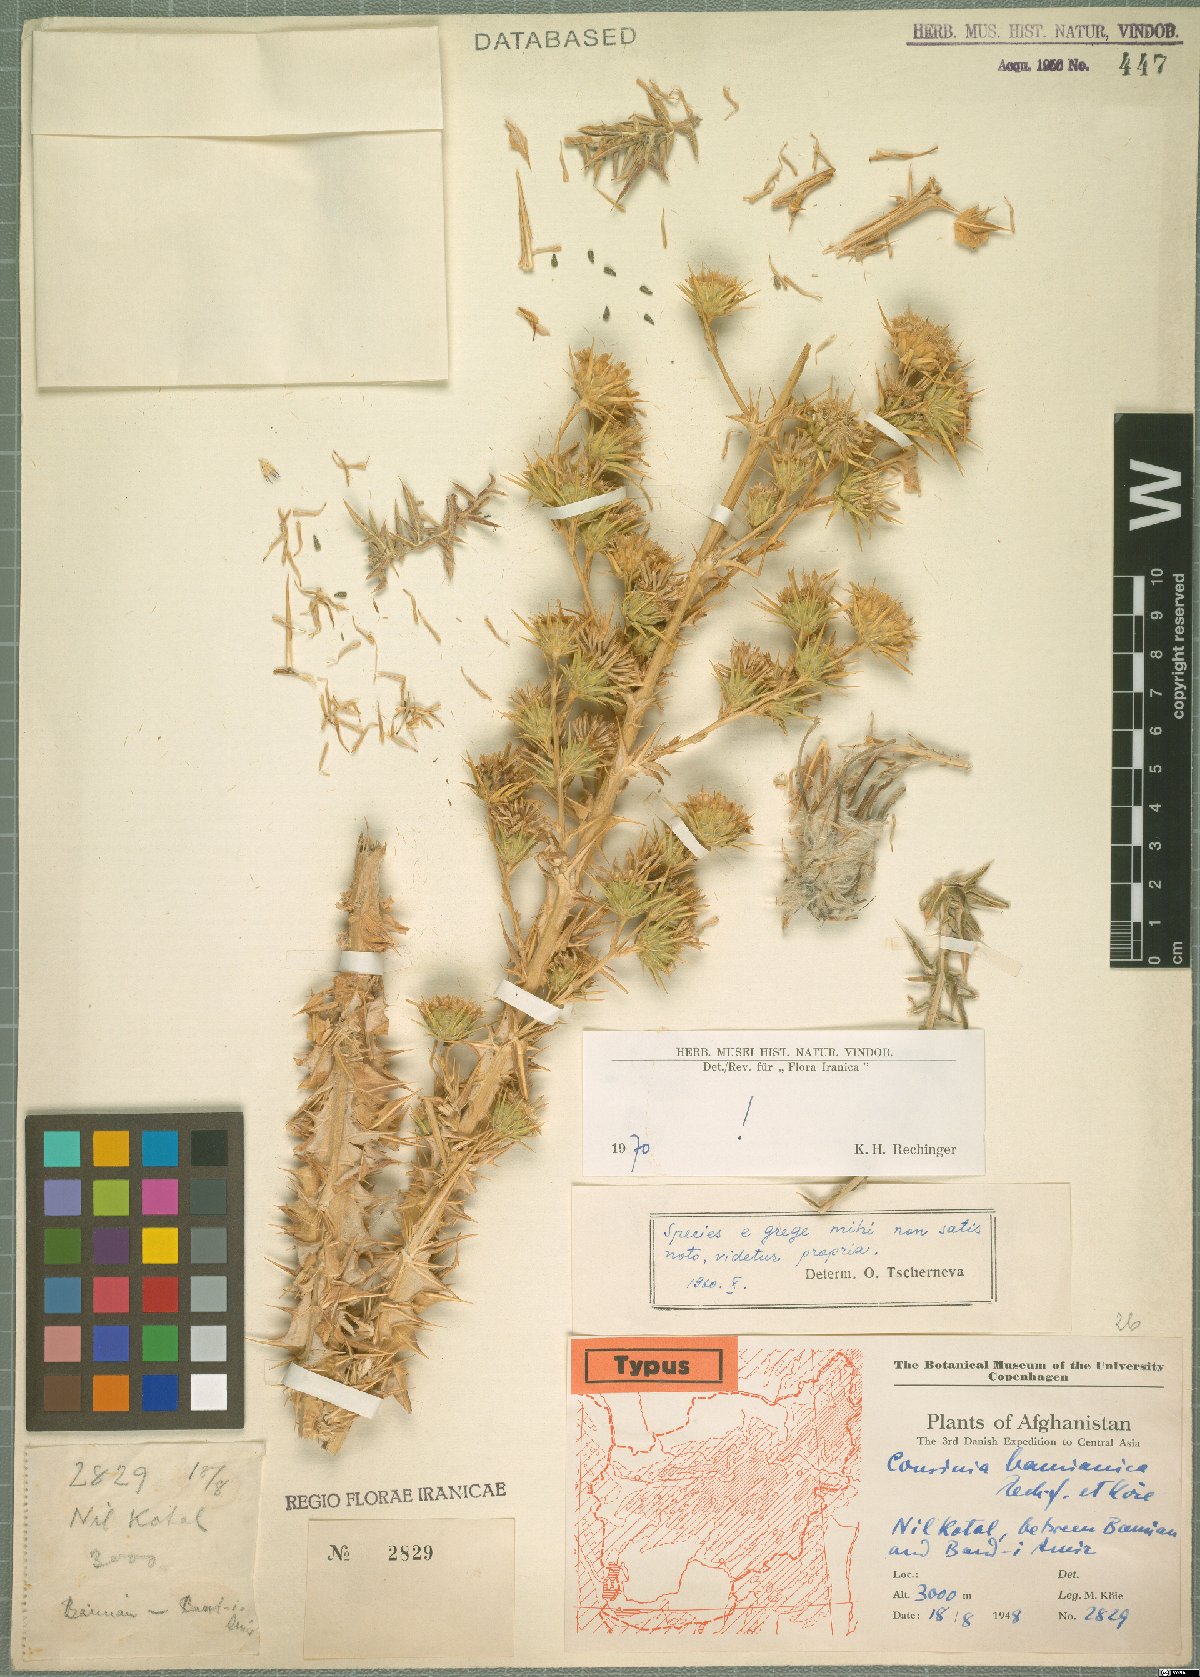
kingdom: Plantae
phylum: Tracheophyta
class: Magnoliopsida
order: Asterales
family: Asteraceae
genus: Cousinia
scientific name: Cousinia bamianica
